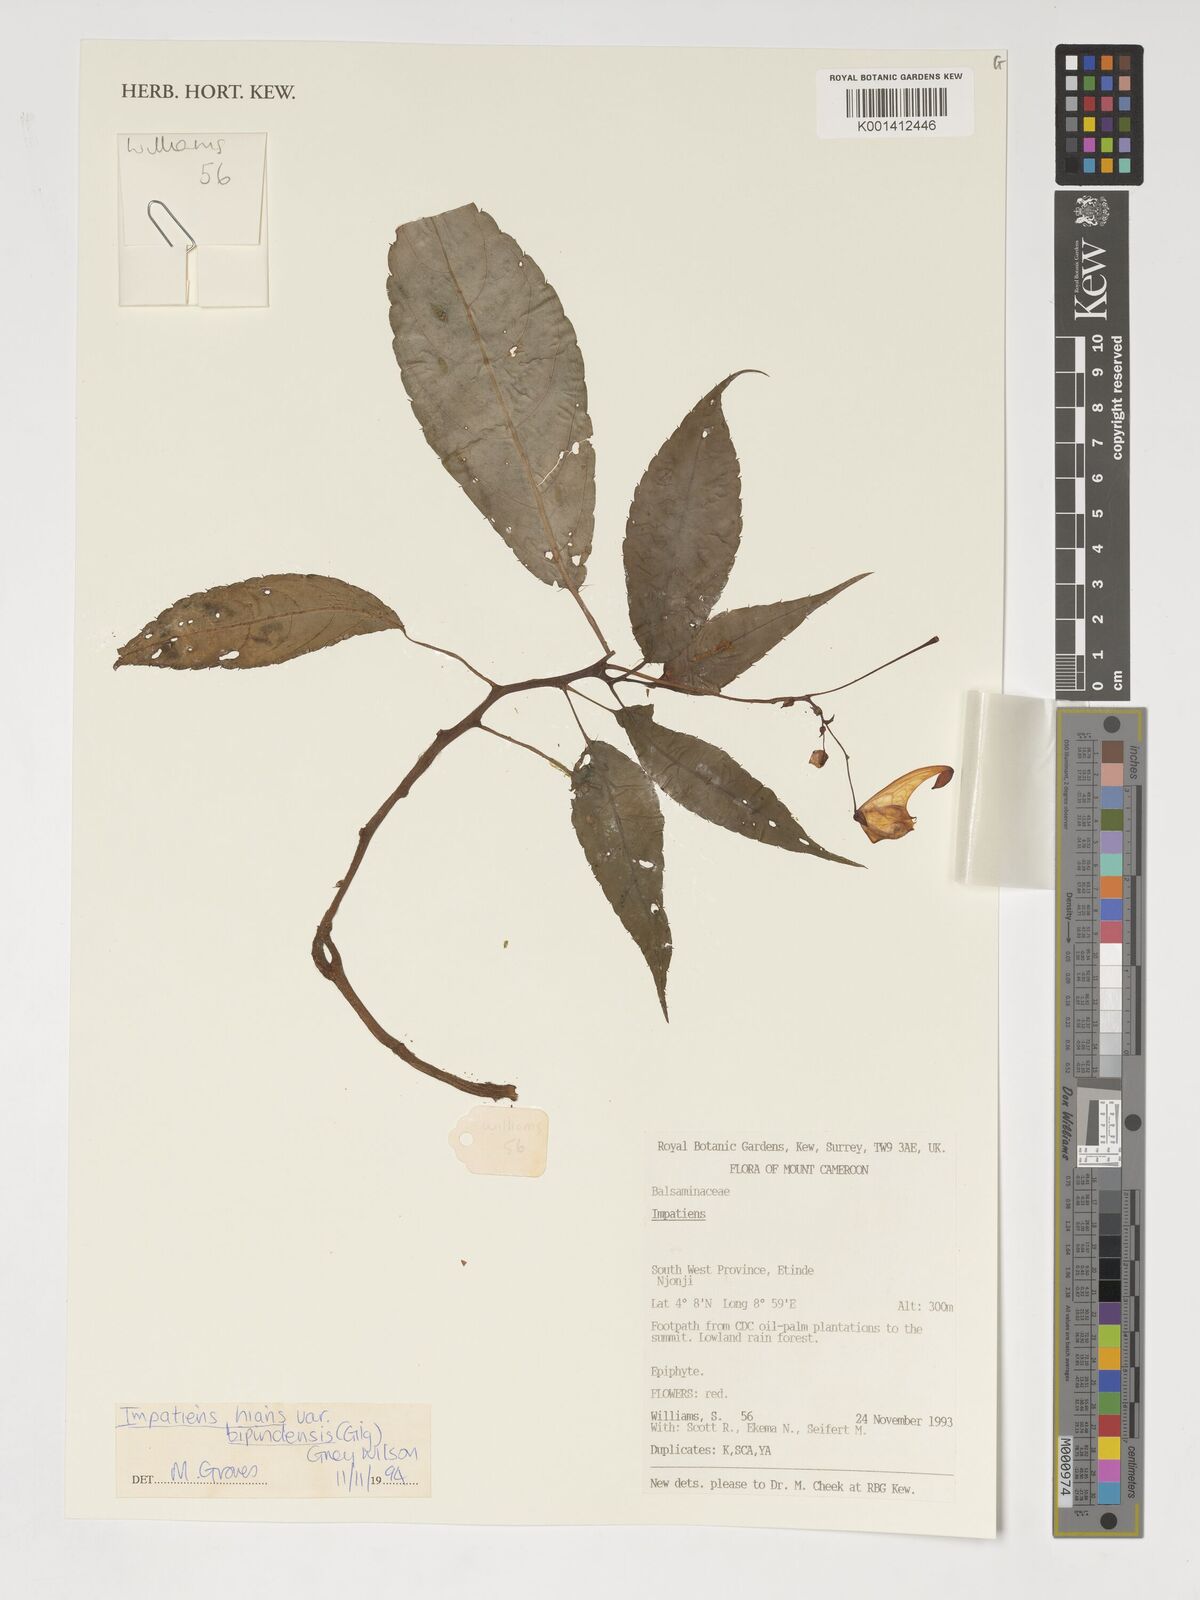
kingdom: Plantae
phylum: Tracheophyta
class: Magnoliopsida
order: Ericales
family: Balsaminaceae
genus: Impatiens
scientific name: Impatiens hians
